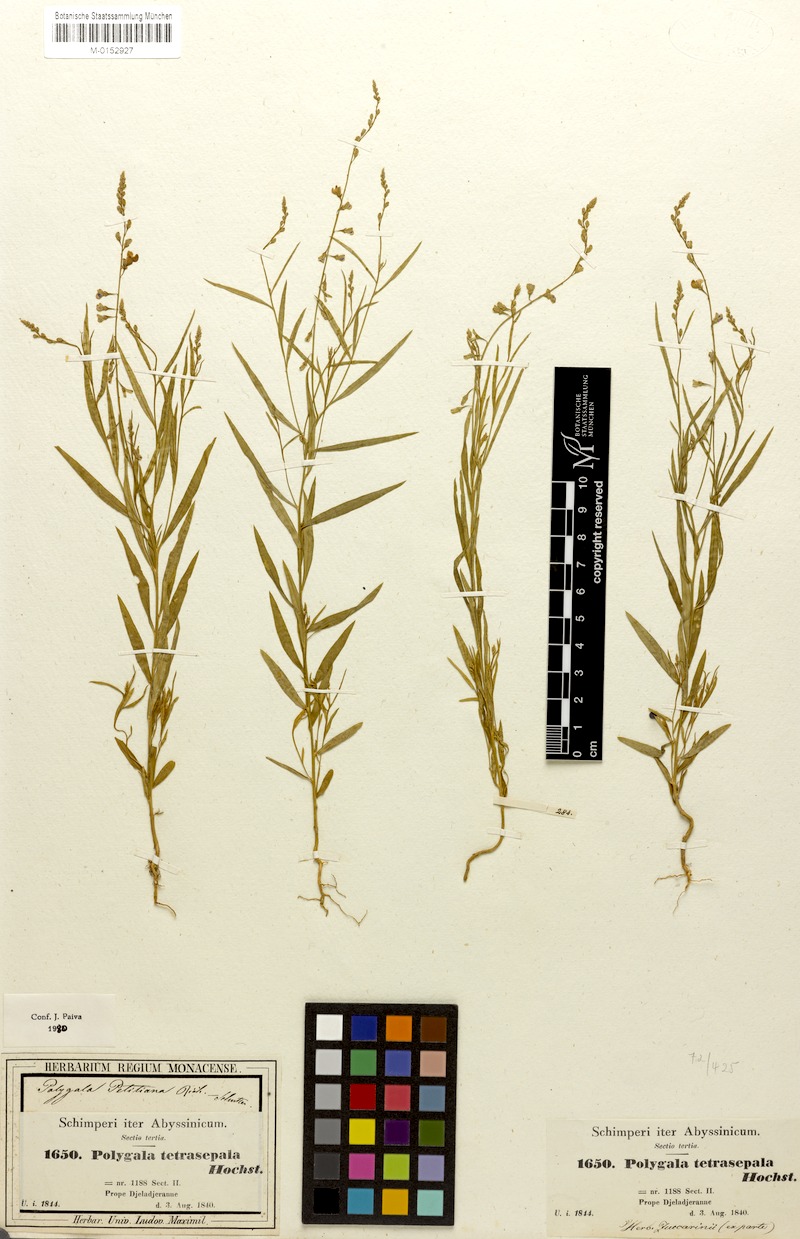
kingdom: Plantae
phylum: Tracheophyta
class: Magnoliopsida
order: Fabales
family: Polygalaceae
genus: Polygala
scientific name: Polygala petitiana
